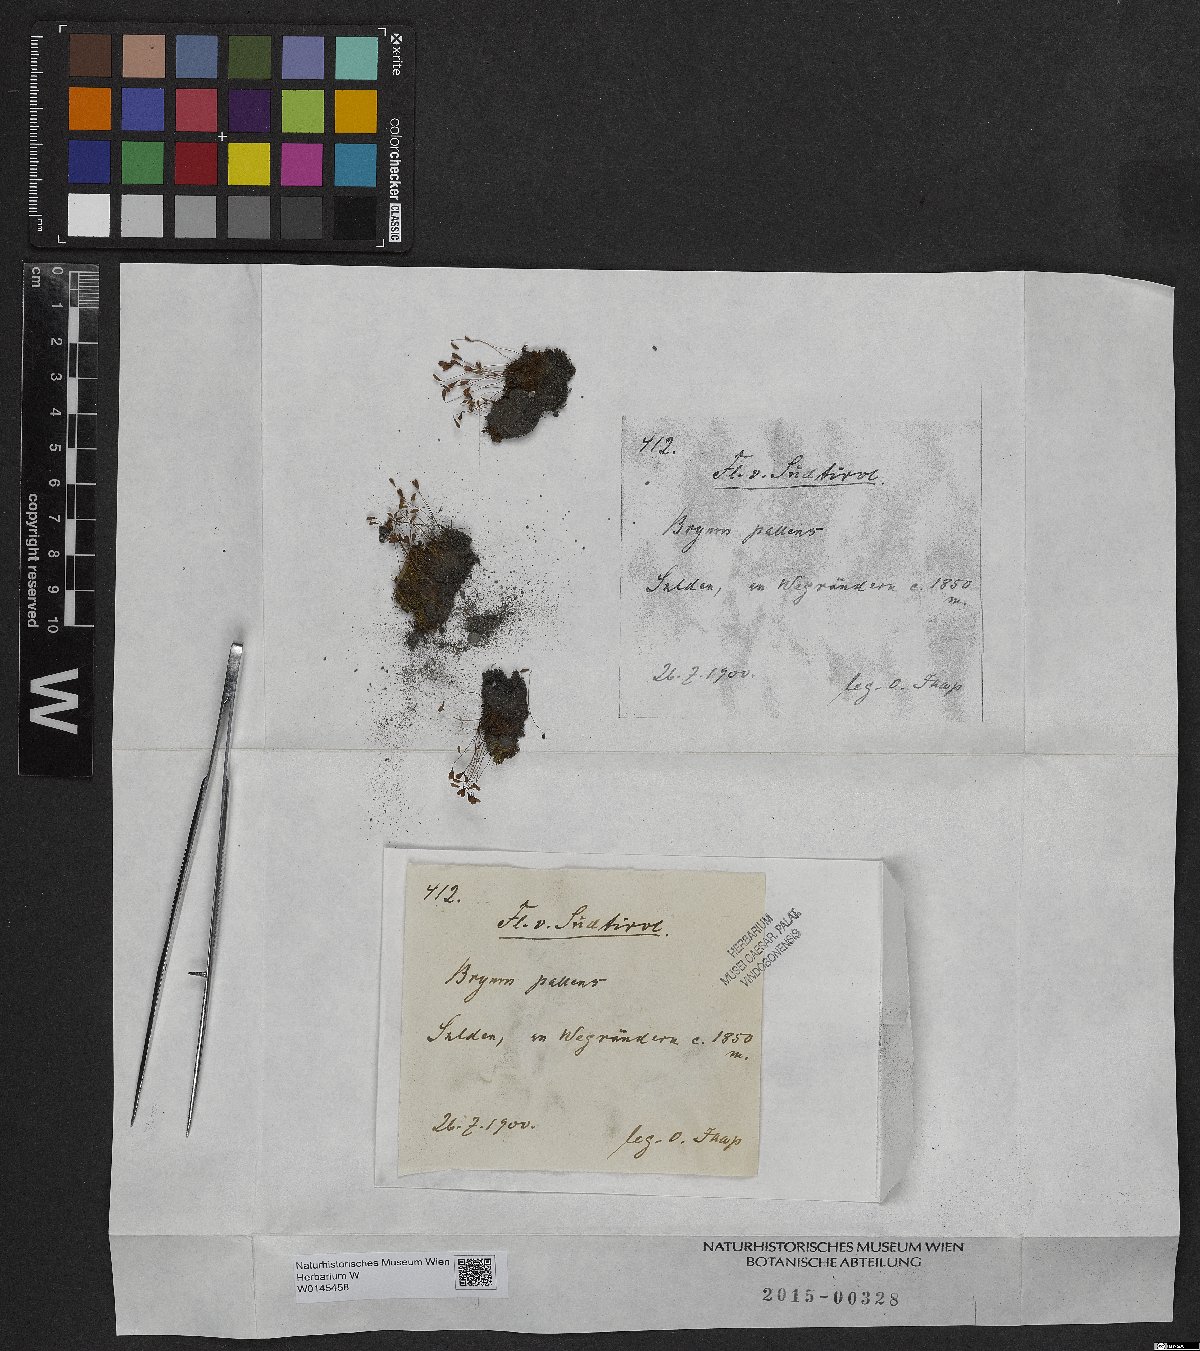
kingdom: Plantae
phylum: Bryophyta
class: Bryopsida
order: Bryales
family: Bryaceae
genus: Ptychostomum
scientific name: Ptychostomum pallens
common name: Pale thread-moss
